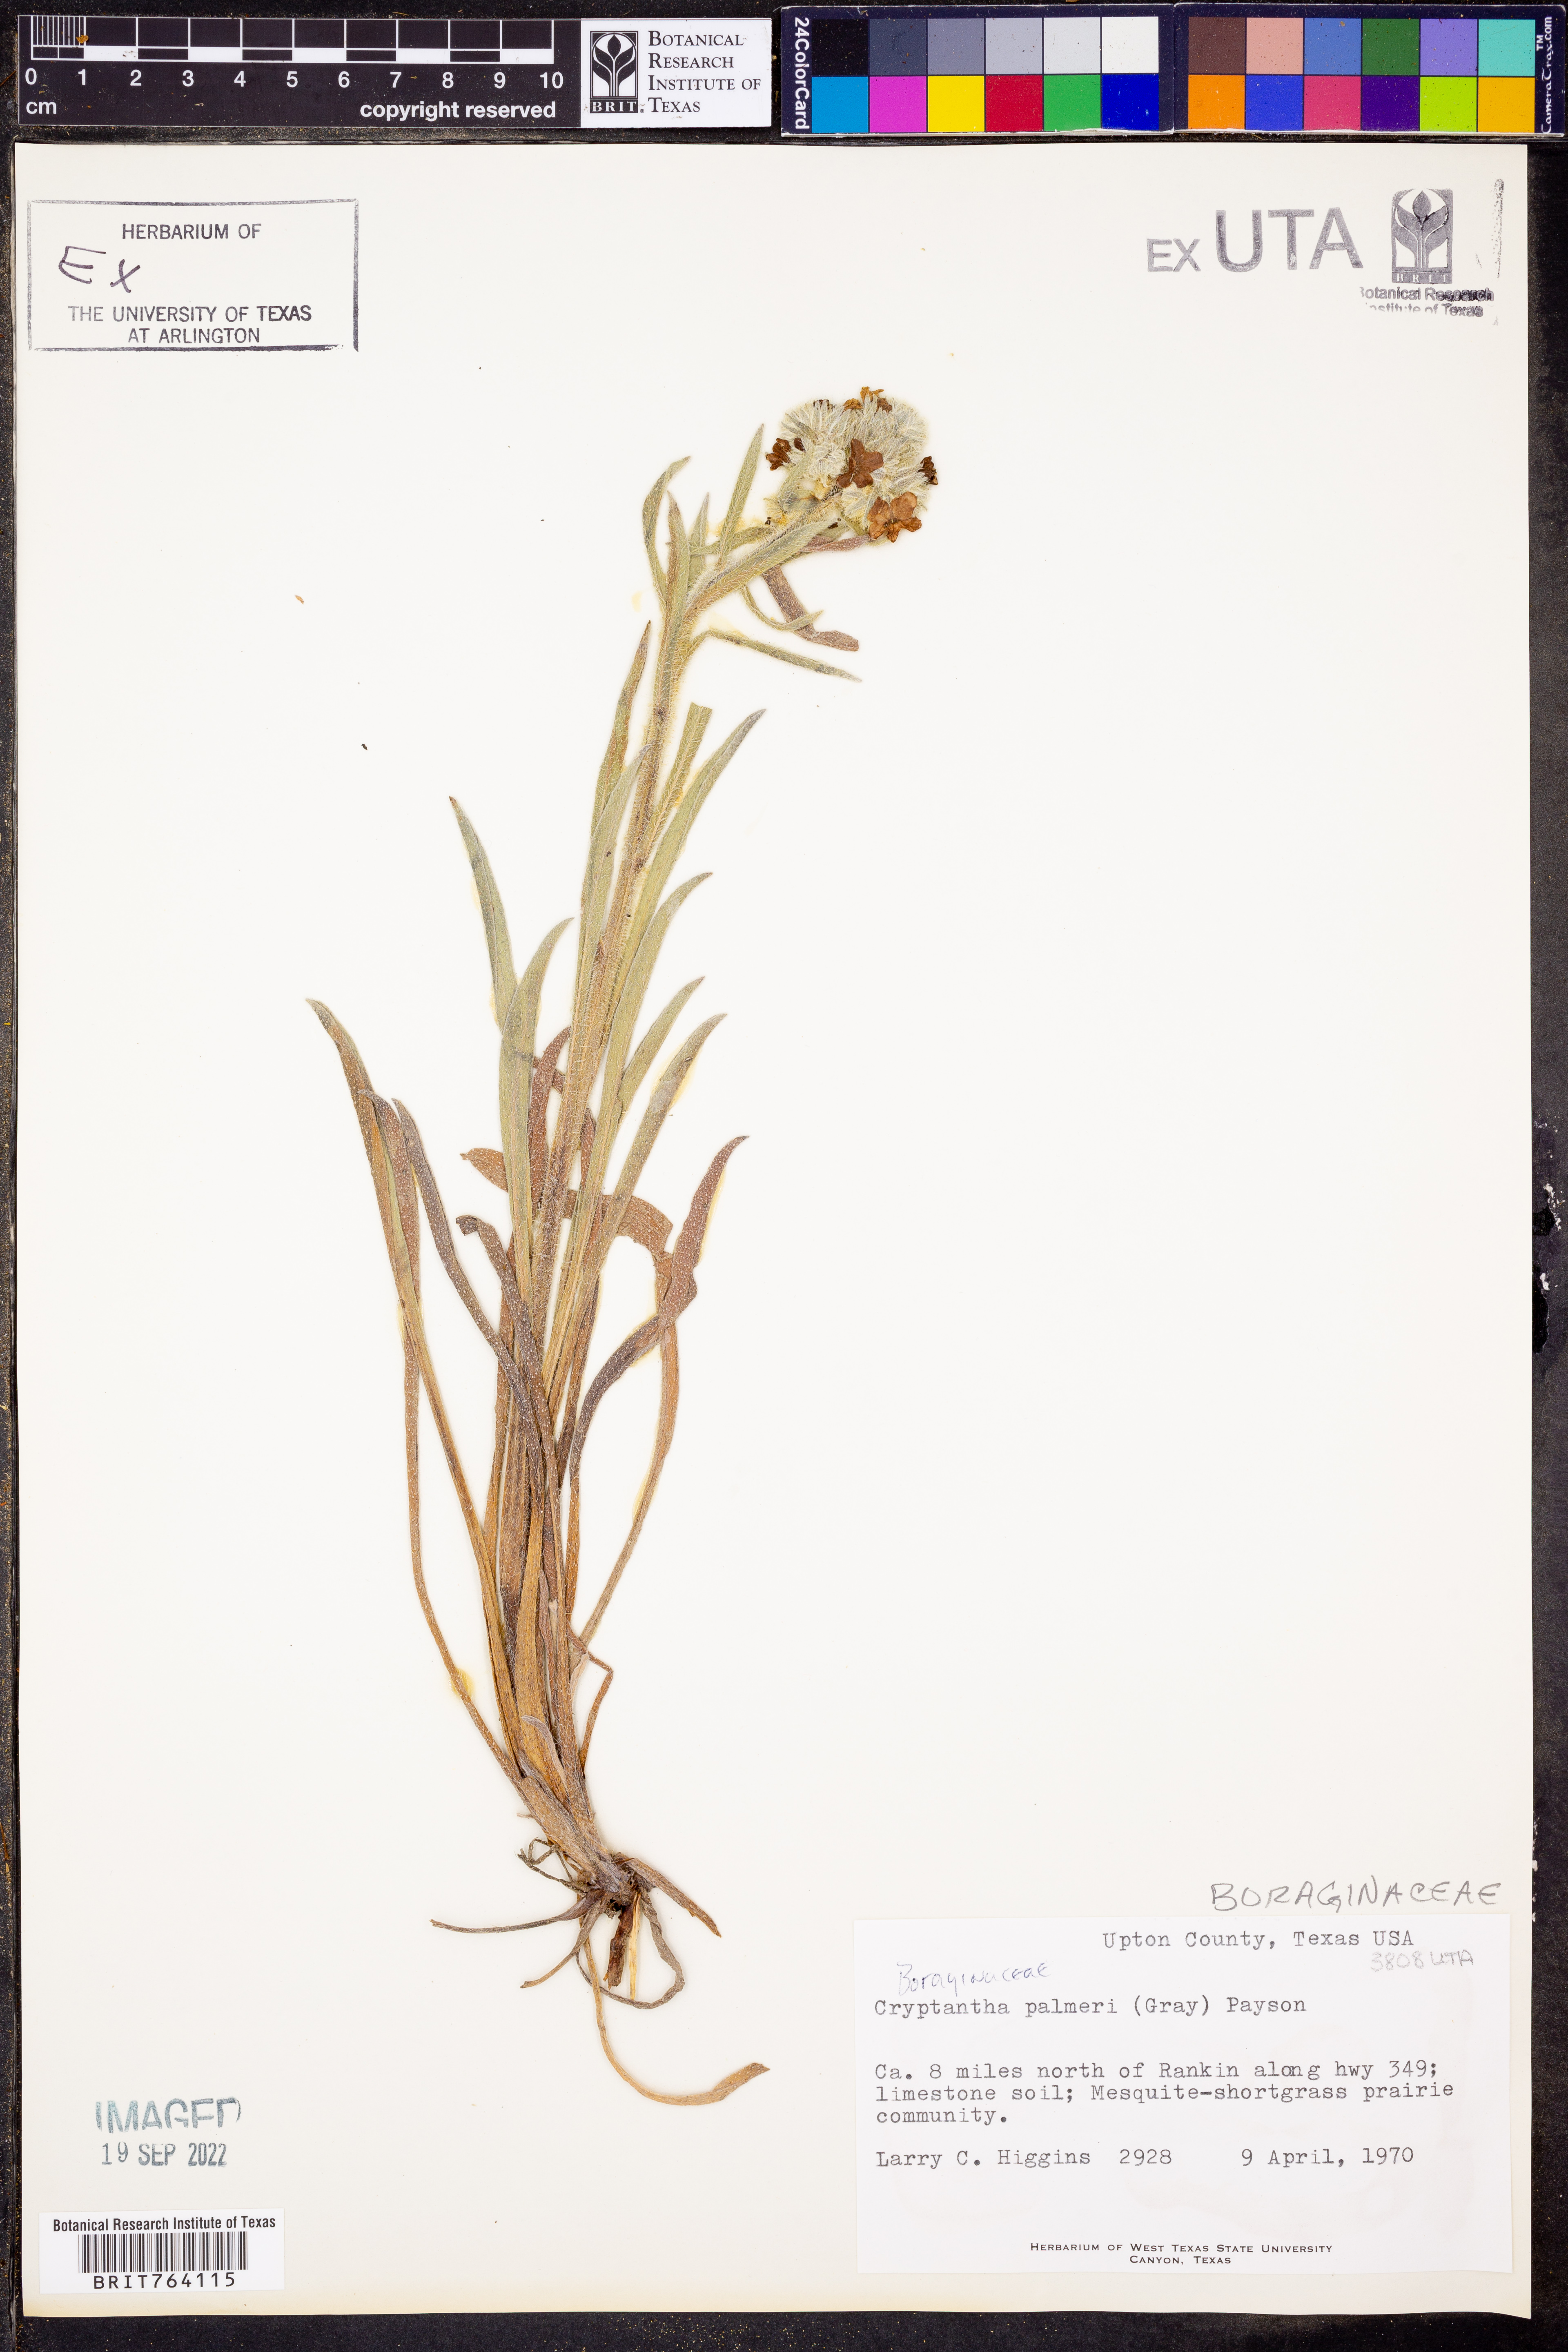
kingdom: Plantae
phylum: Tracheophyta
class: Magnoliopsida
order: Boraginales
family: Boraginaceae
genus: Oreocarya
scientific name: Oreocarya palmeri
